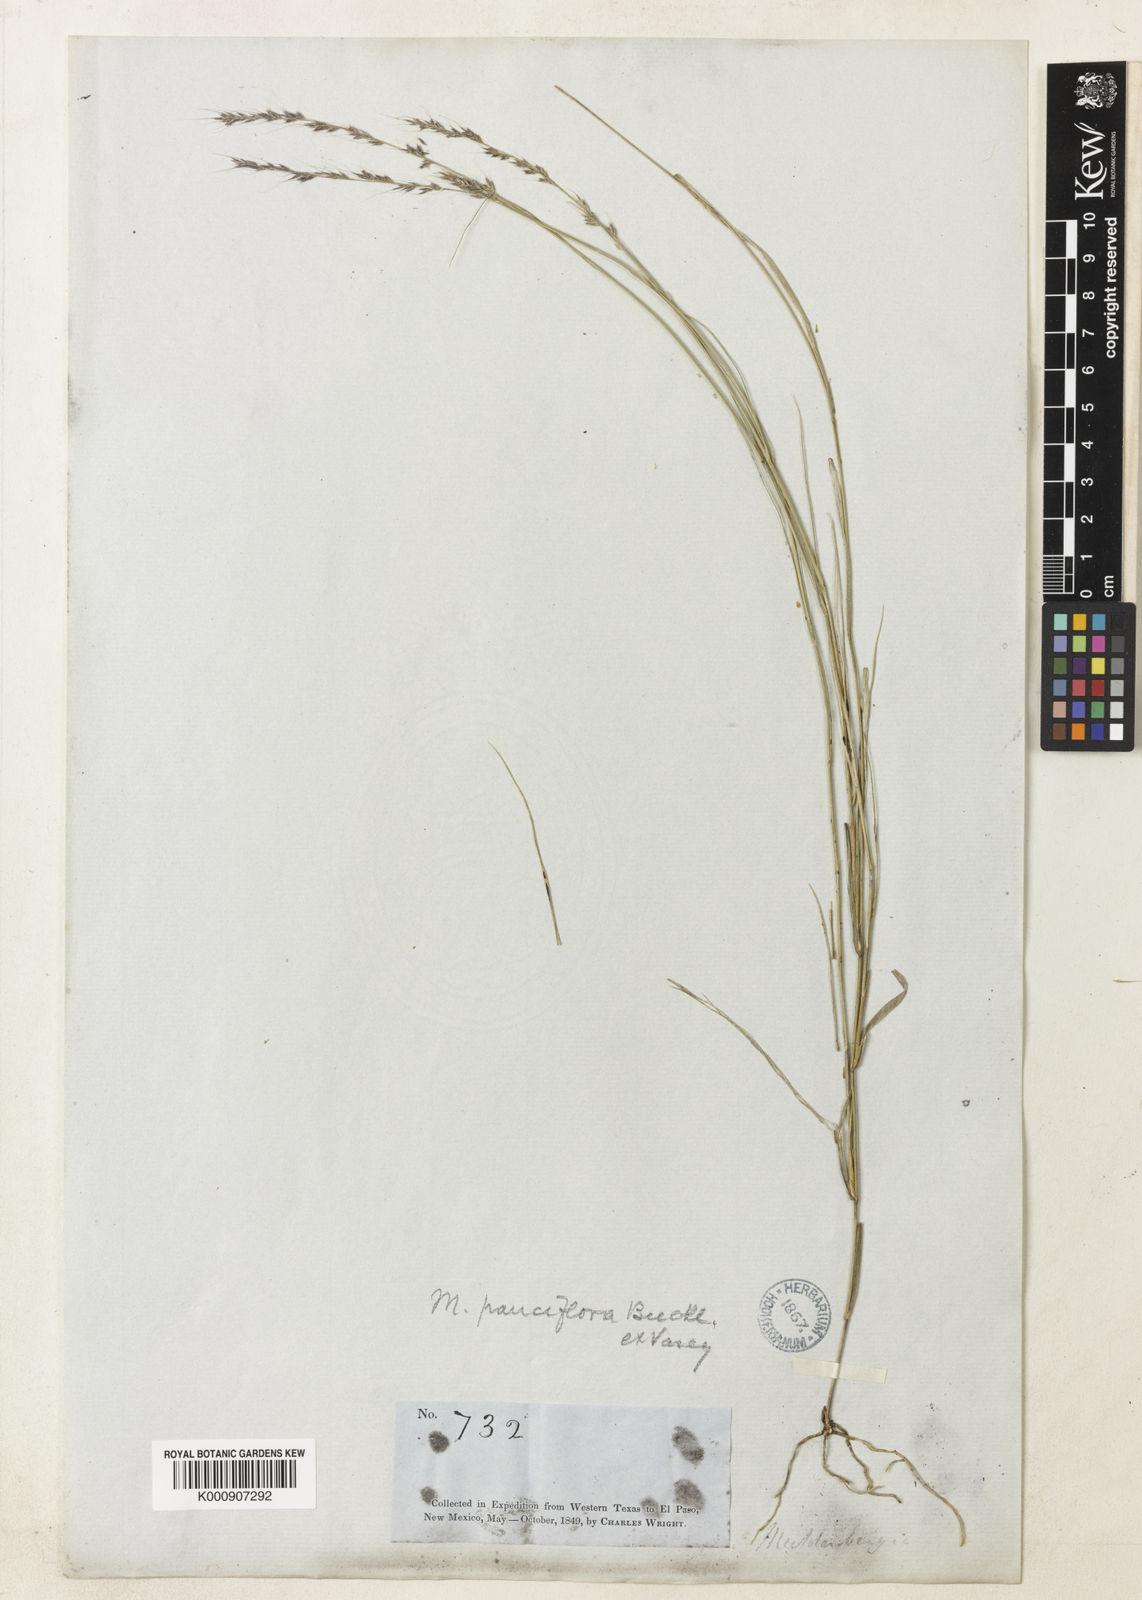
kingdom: Plantae
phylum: Tracheophyta
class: Liliopsida
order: Poales
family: Poaceae
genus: Muhlenbergia
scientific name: Muhlenbergia pauciflora
